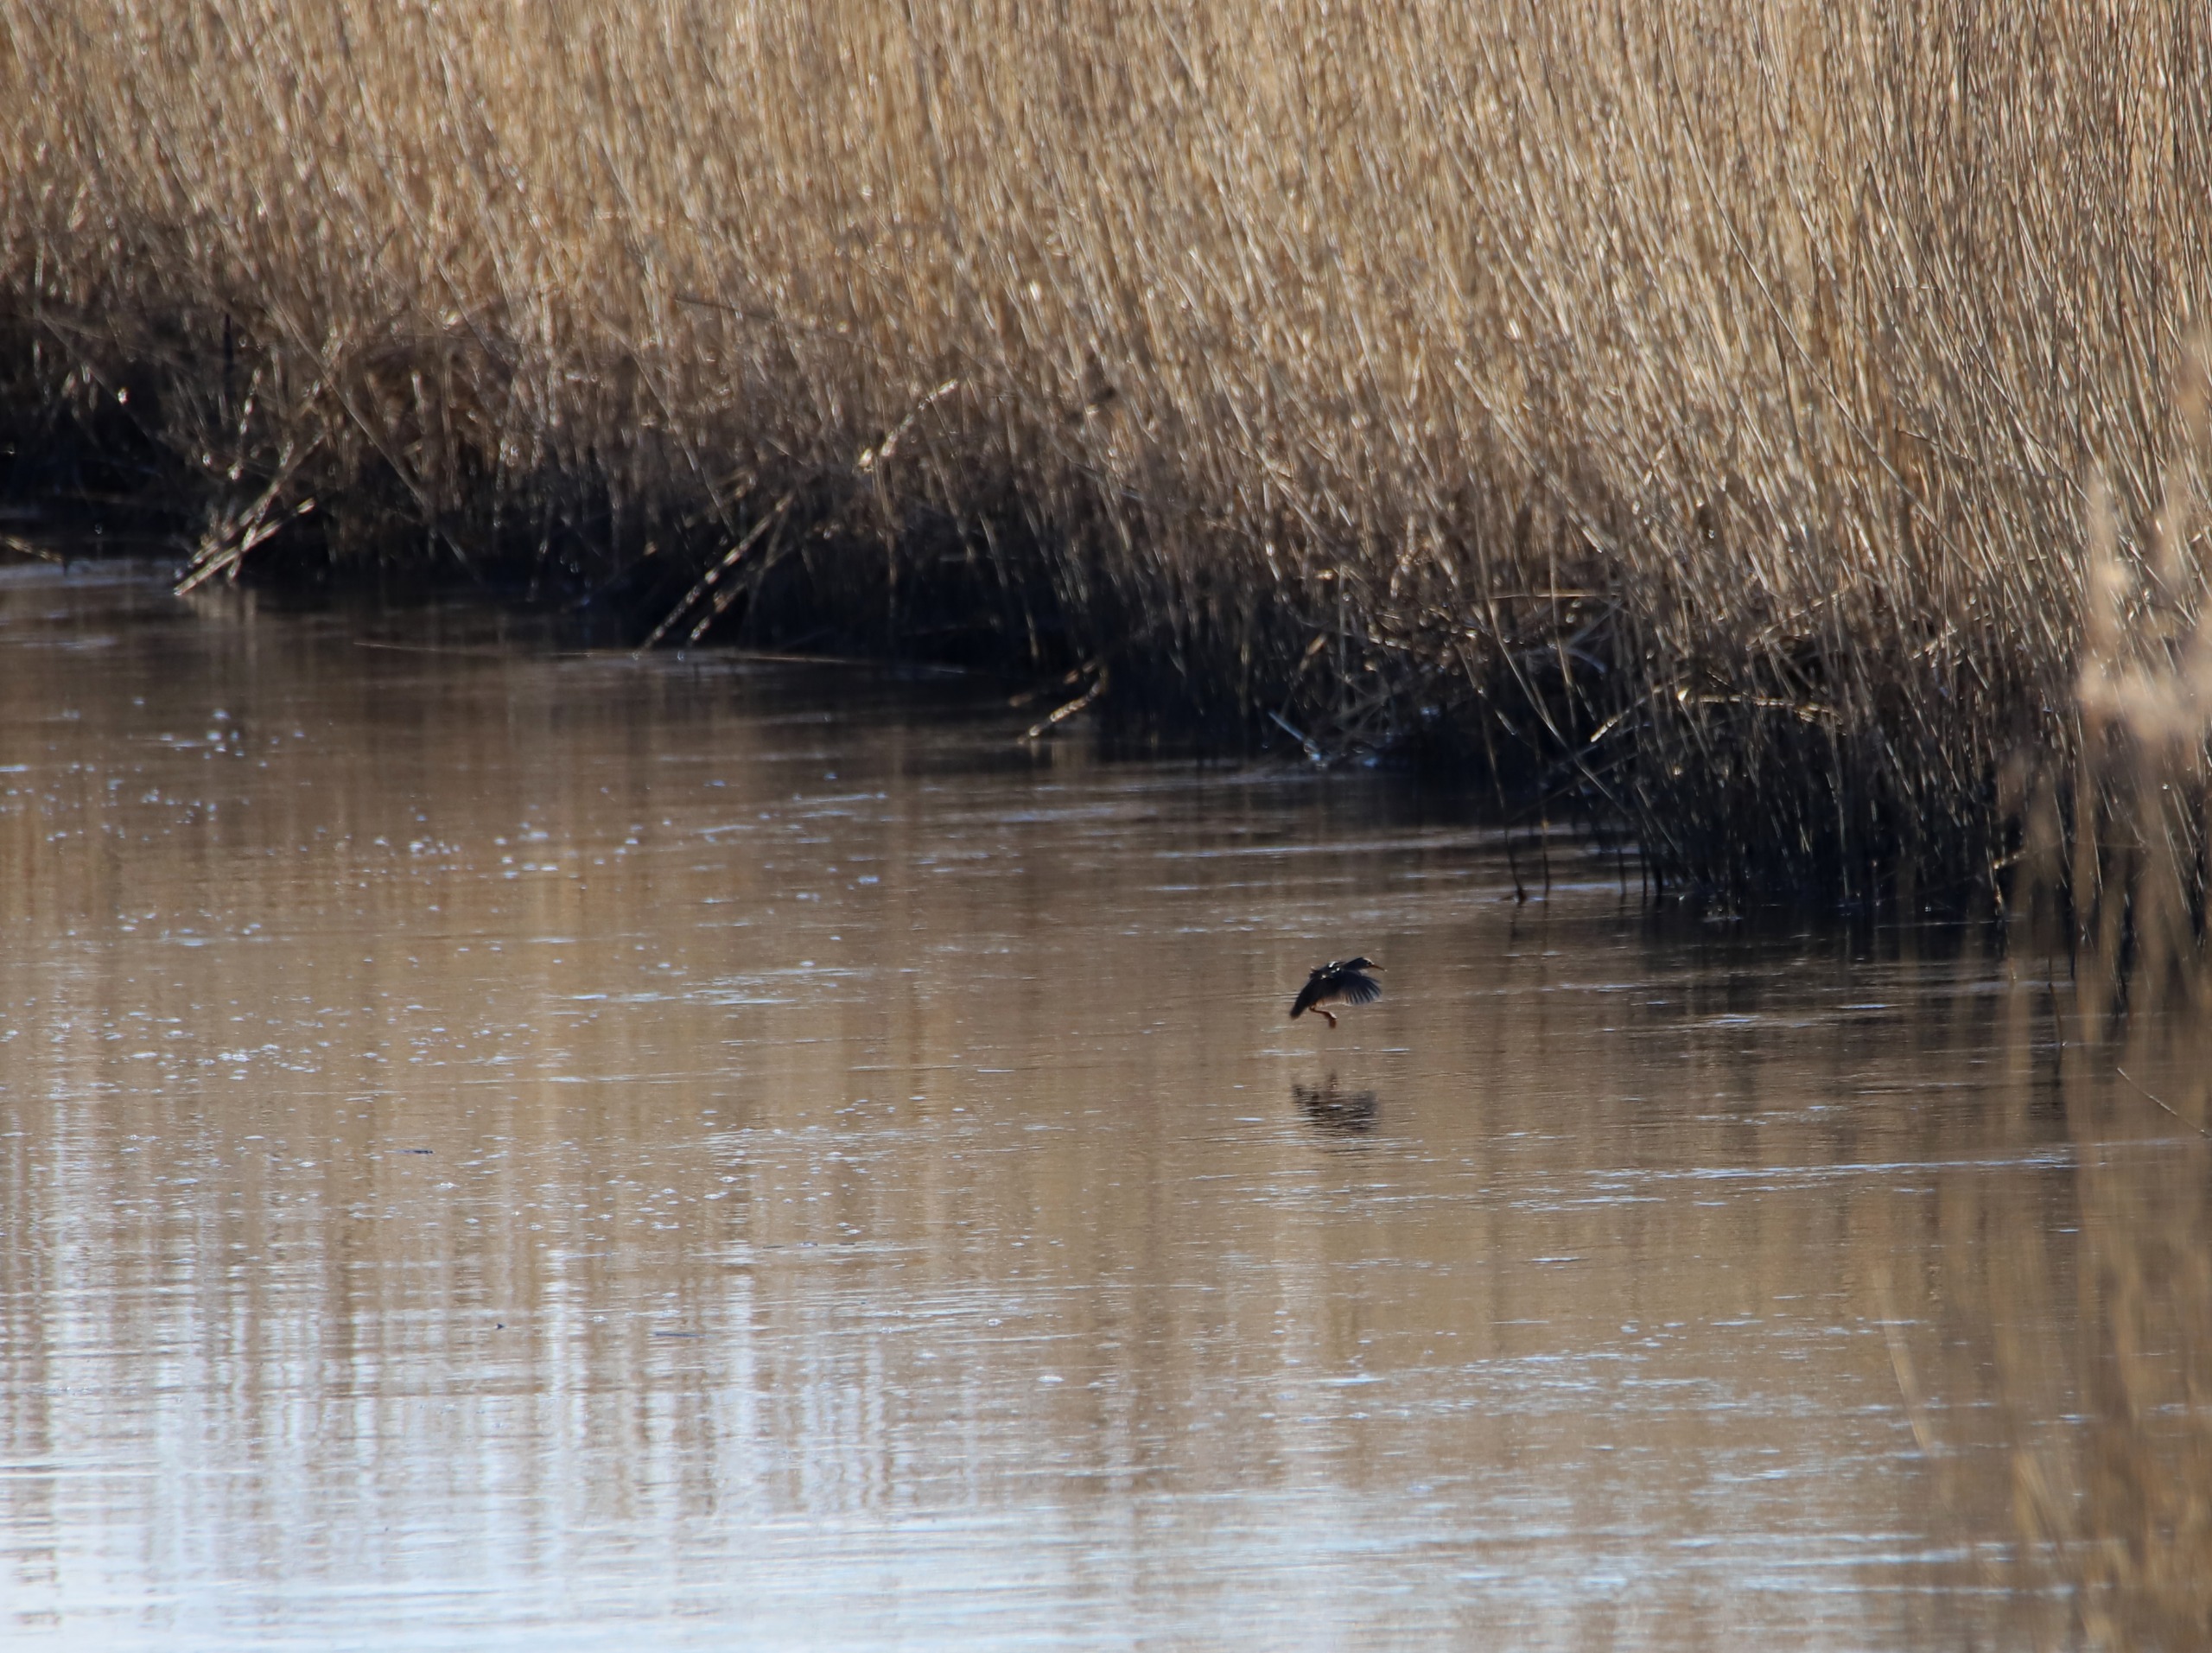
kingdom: Animalia
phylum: Chordata
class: Aves
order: Gruiformes
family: Rallidae
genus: Rallus
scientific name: Rallus aquaticus
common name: Vandrikse
